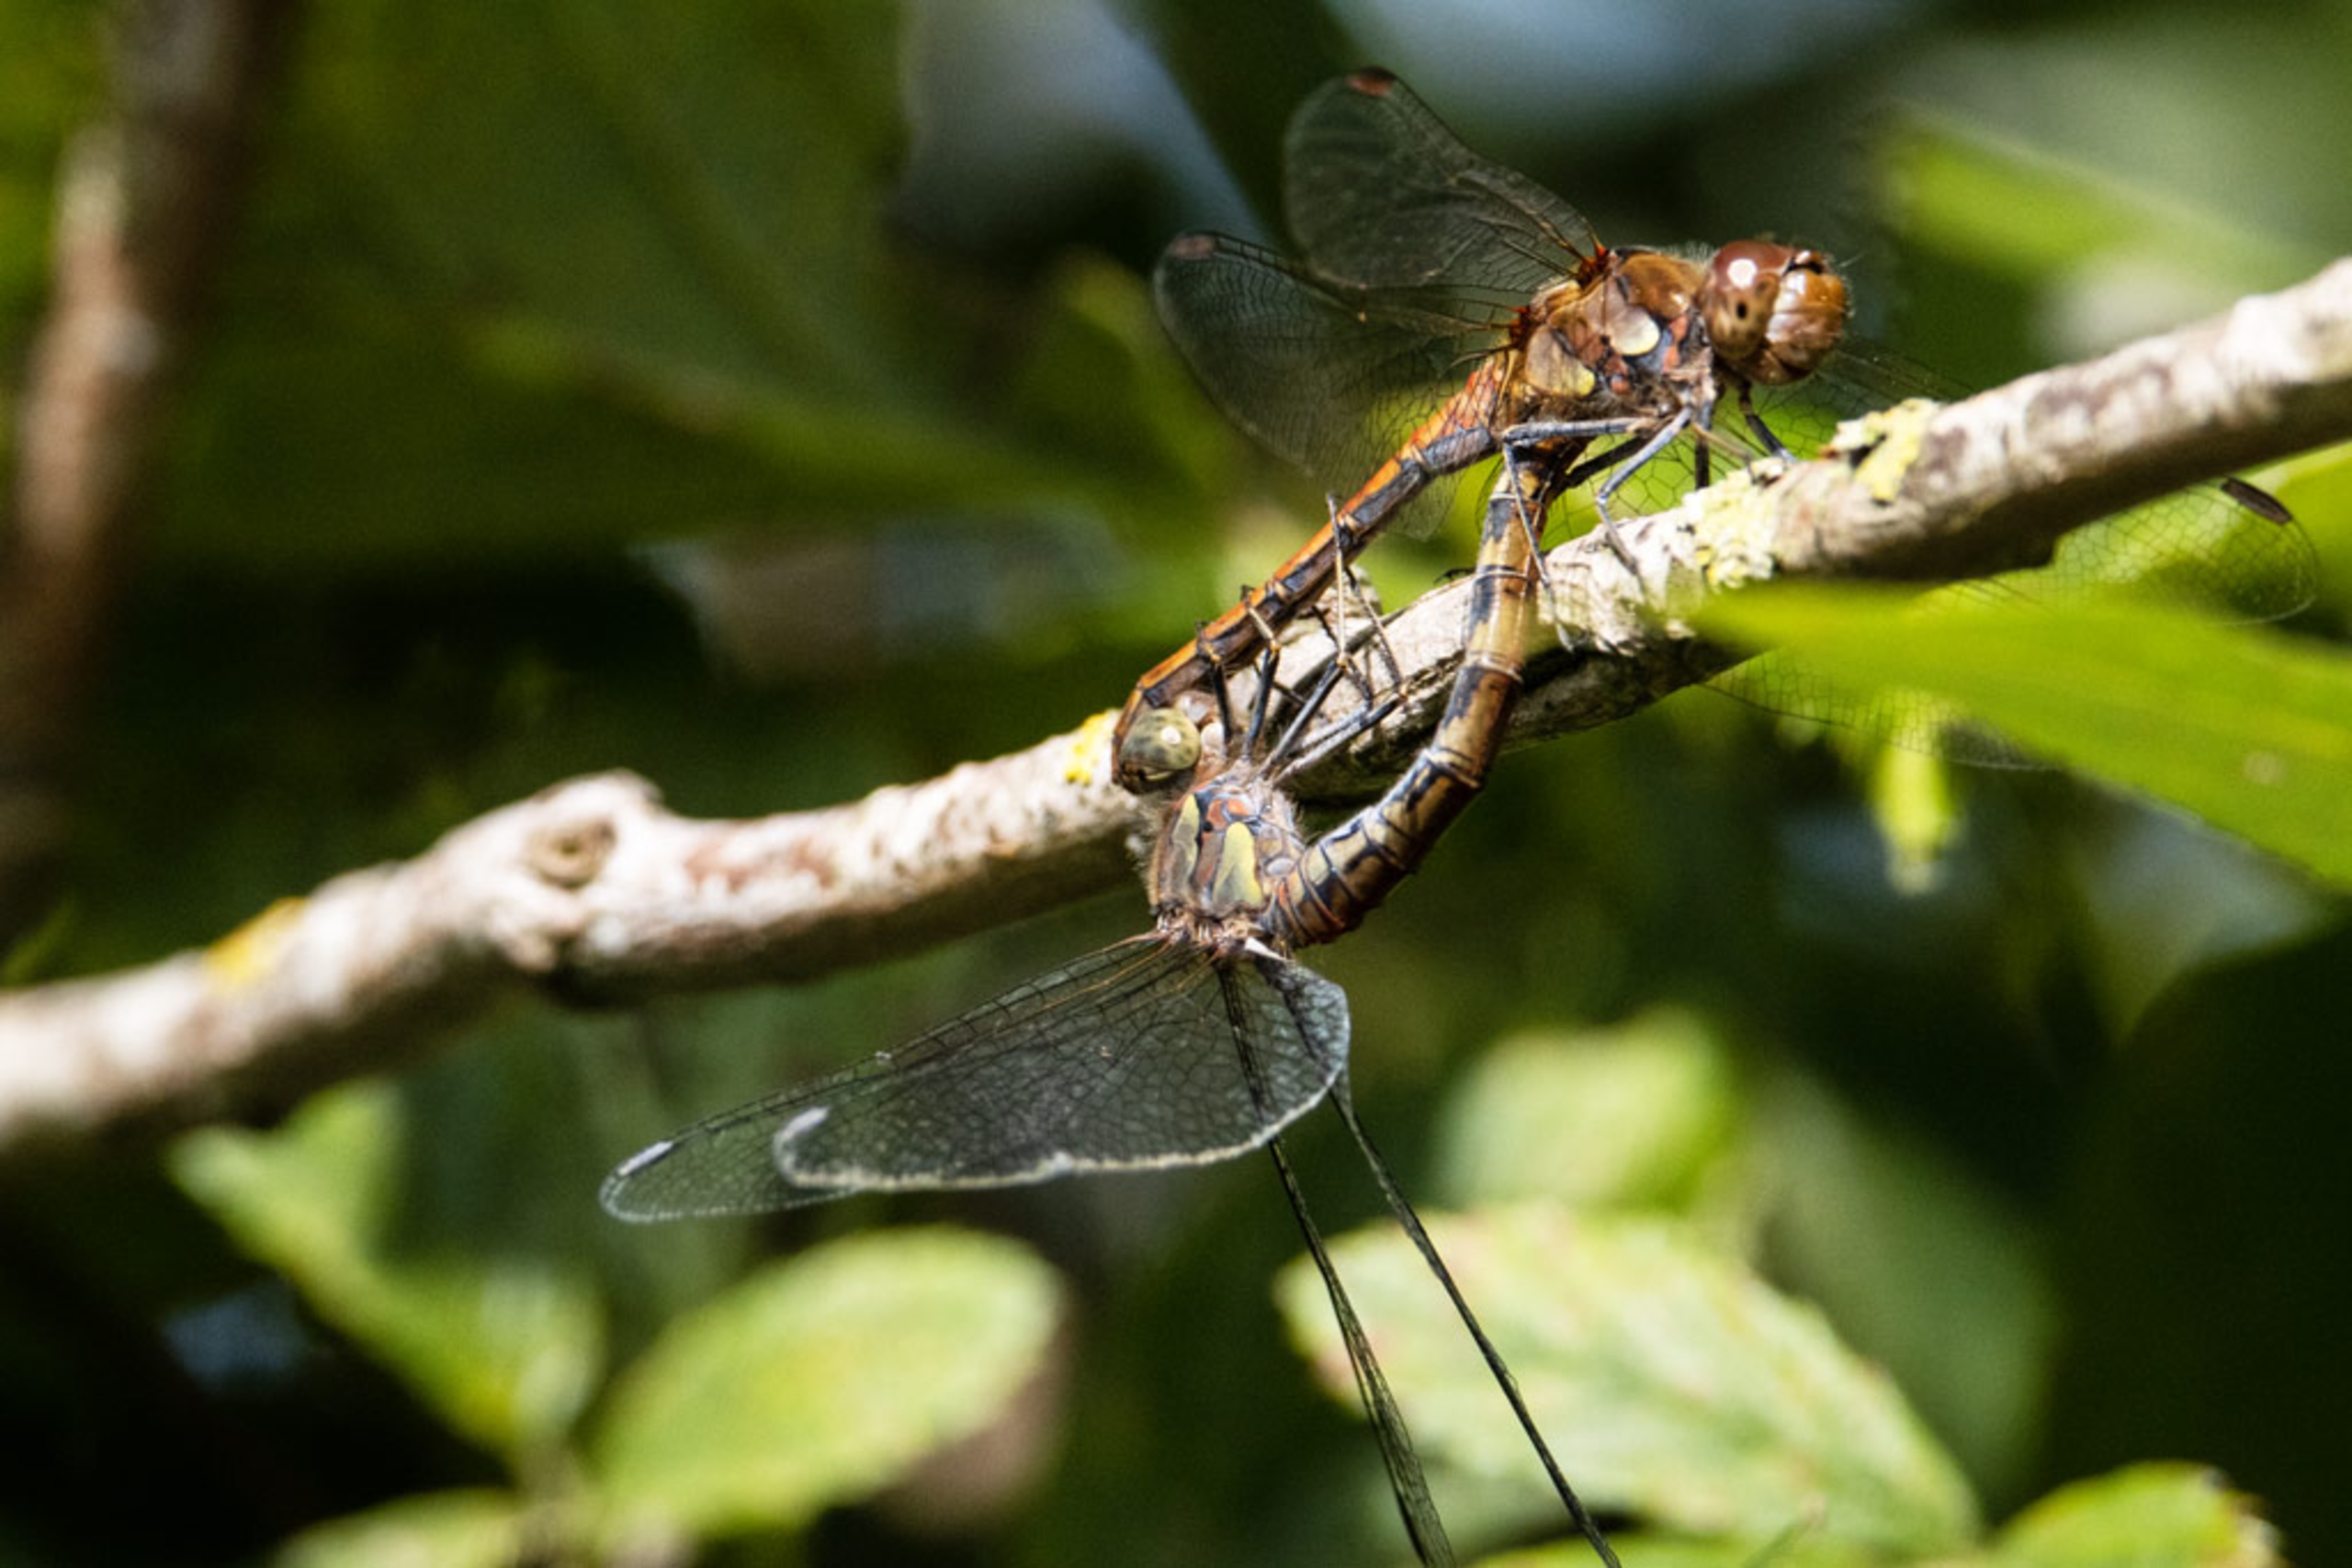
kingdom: Animalia
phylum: Arthropoda
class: Insecta
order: Odonata
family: Libellulidae
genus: Sympetrum
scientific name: Sympetrum striolatum
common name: Stor hedelibel
